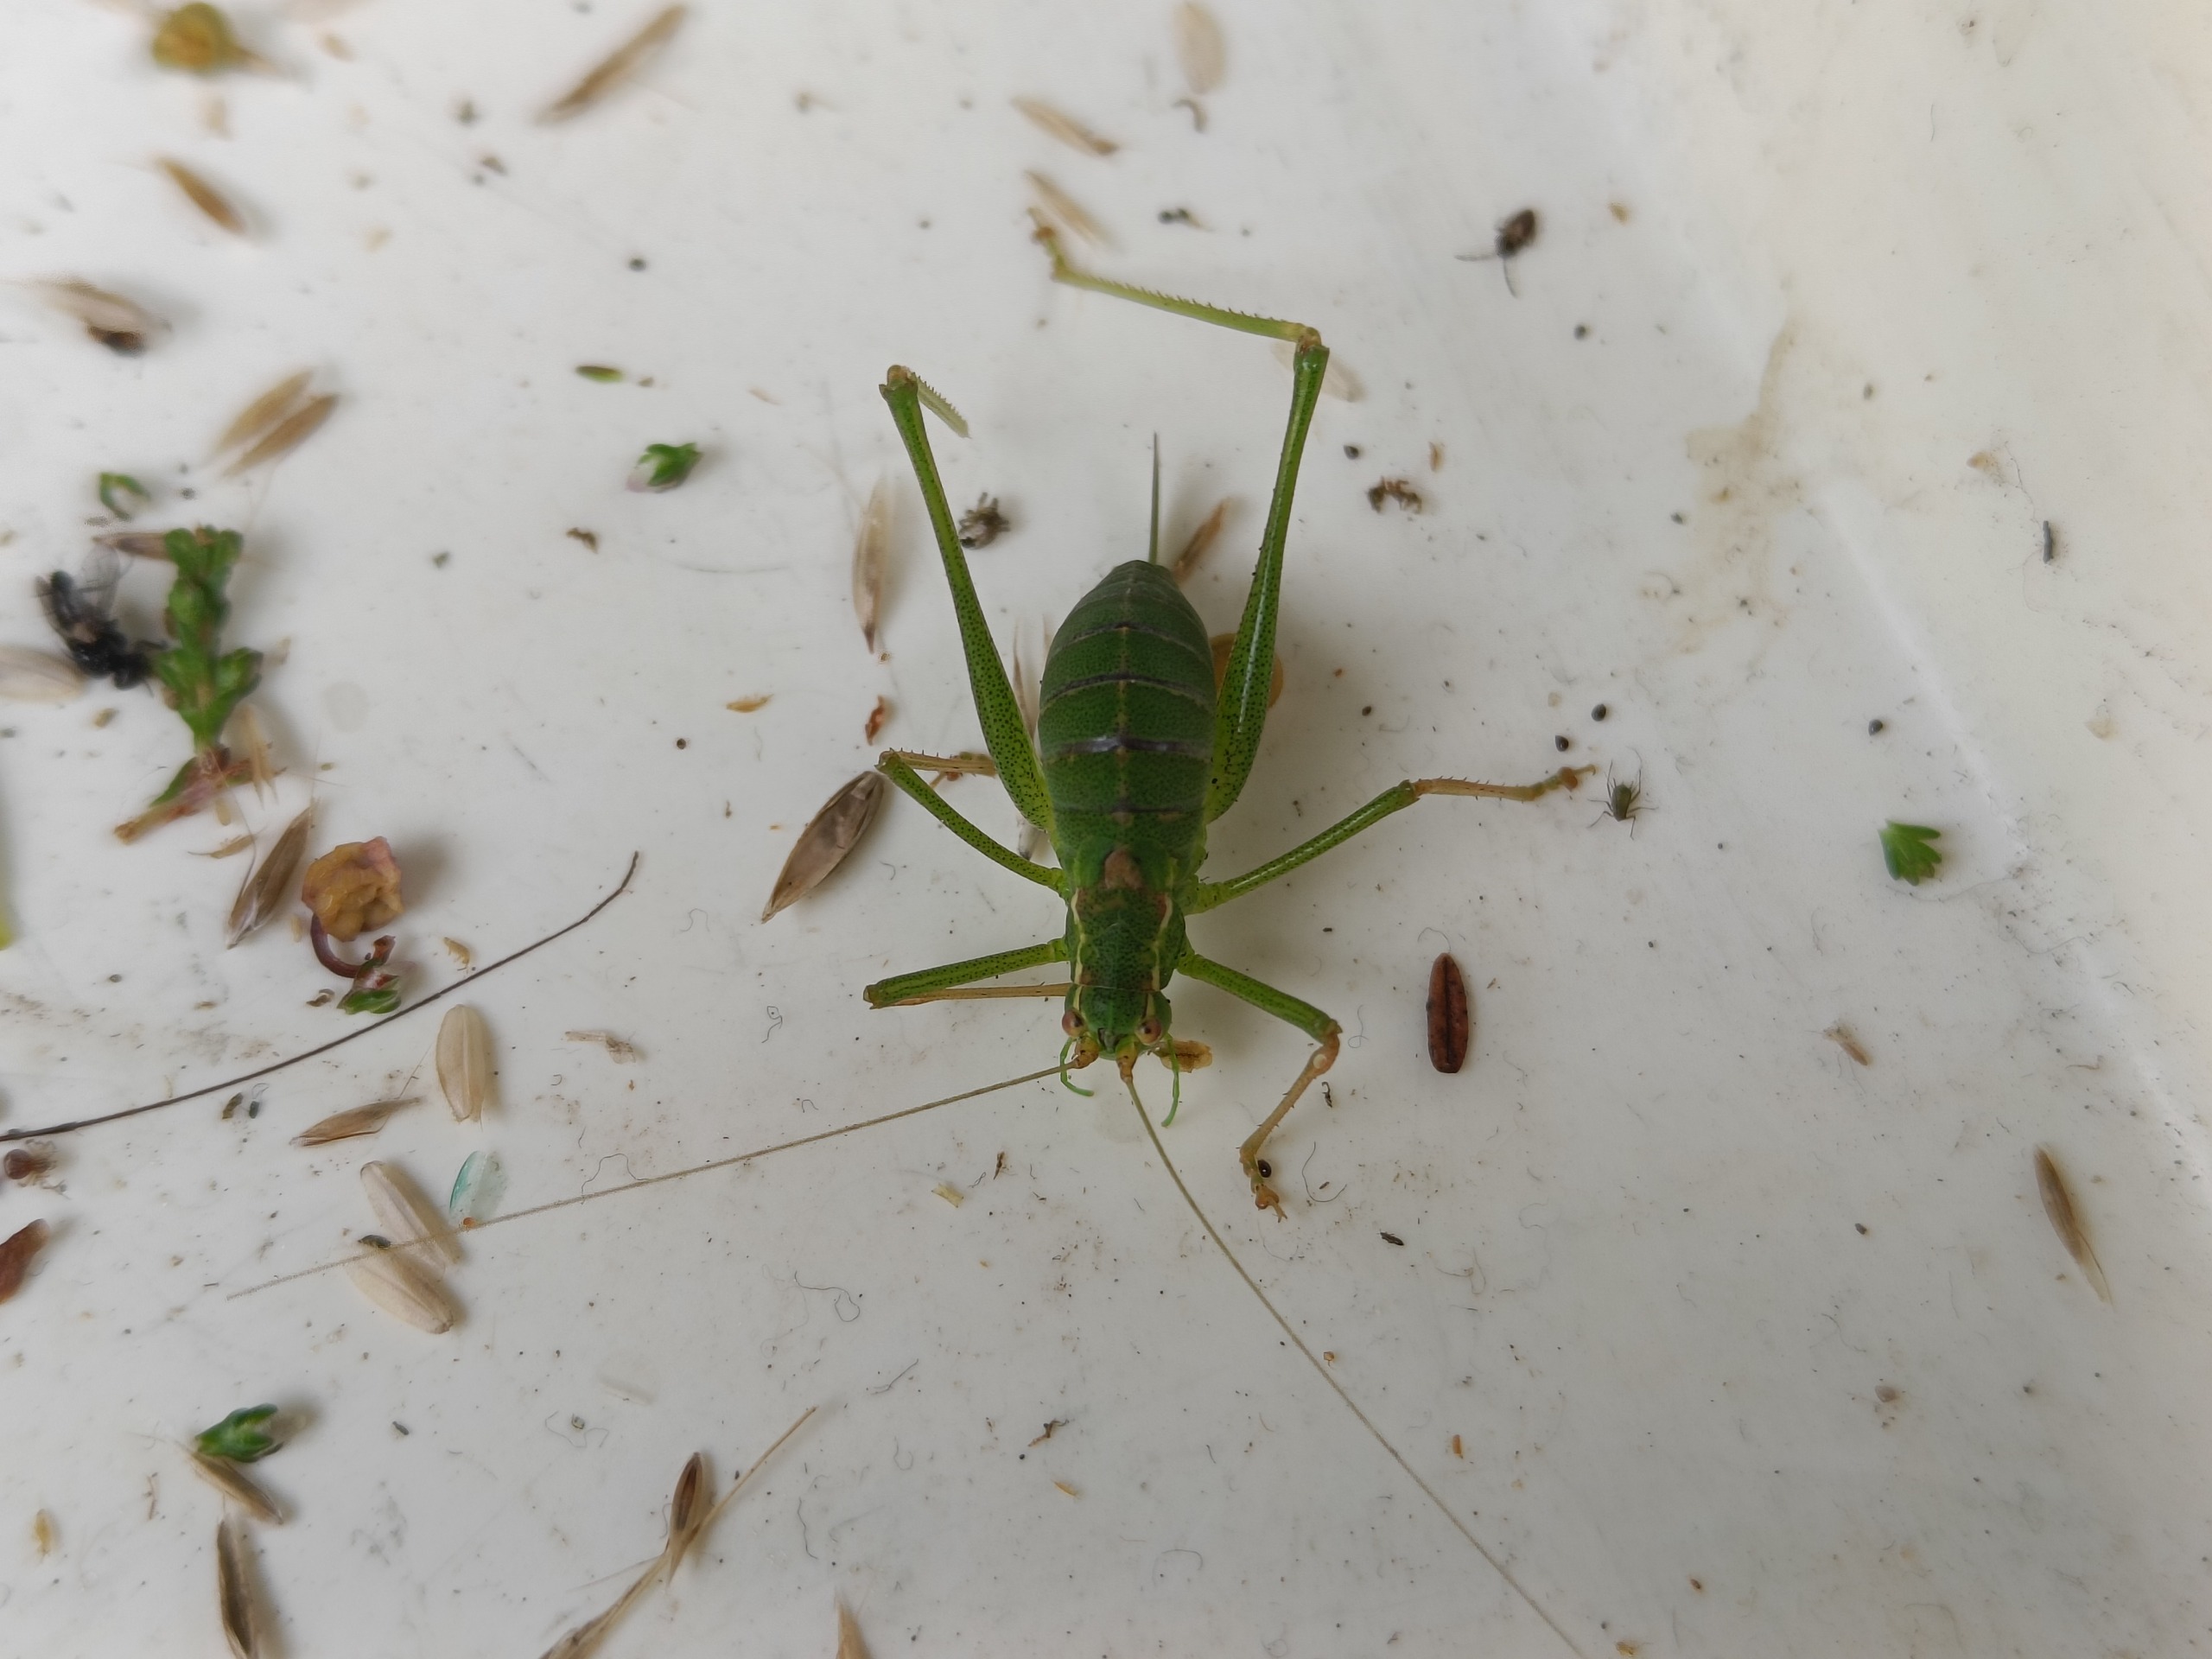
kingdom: Animalia
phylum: Arthropoda
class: Insecta
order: Orthoptera
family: Tettigoniidae
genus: Leptophyes
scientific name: Leptophyes punctatissima
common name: Krumknivgræshoppe
